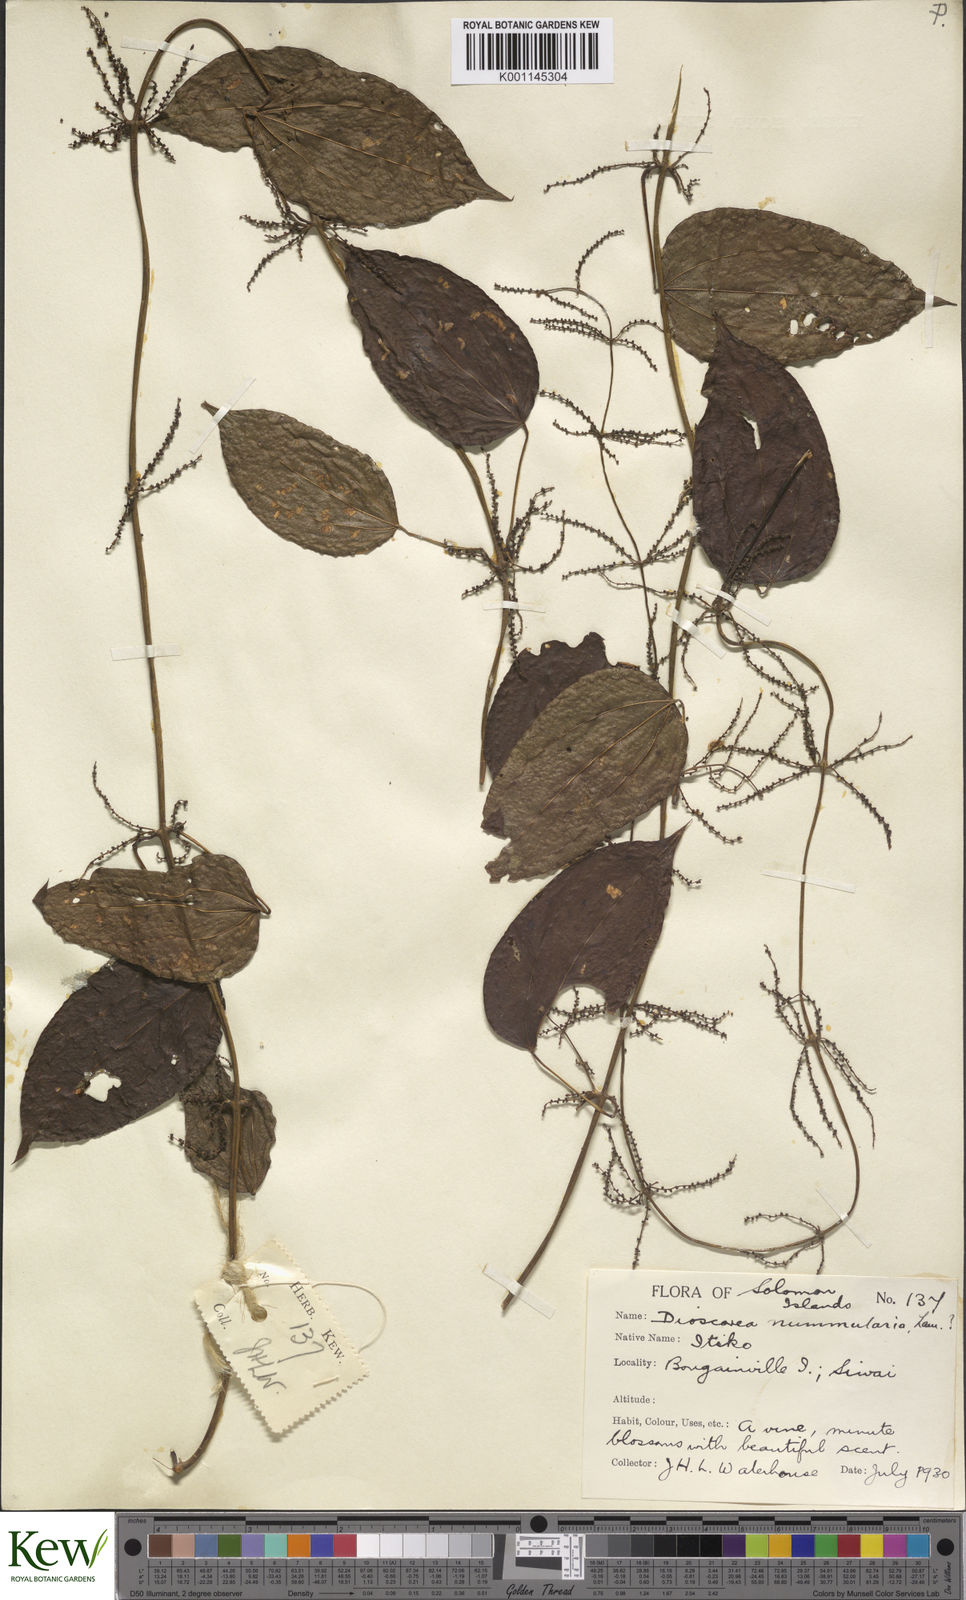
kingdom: Plantae
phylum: Tracheophyta
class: Liliopsida
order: Dioscoreales
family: Dioscoreaceae
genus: Dioscorea
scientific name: Dioscorea nummularia
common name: Pacific yam
